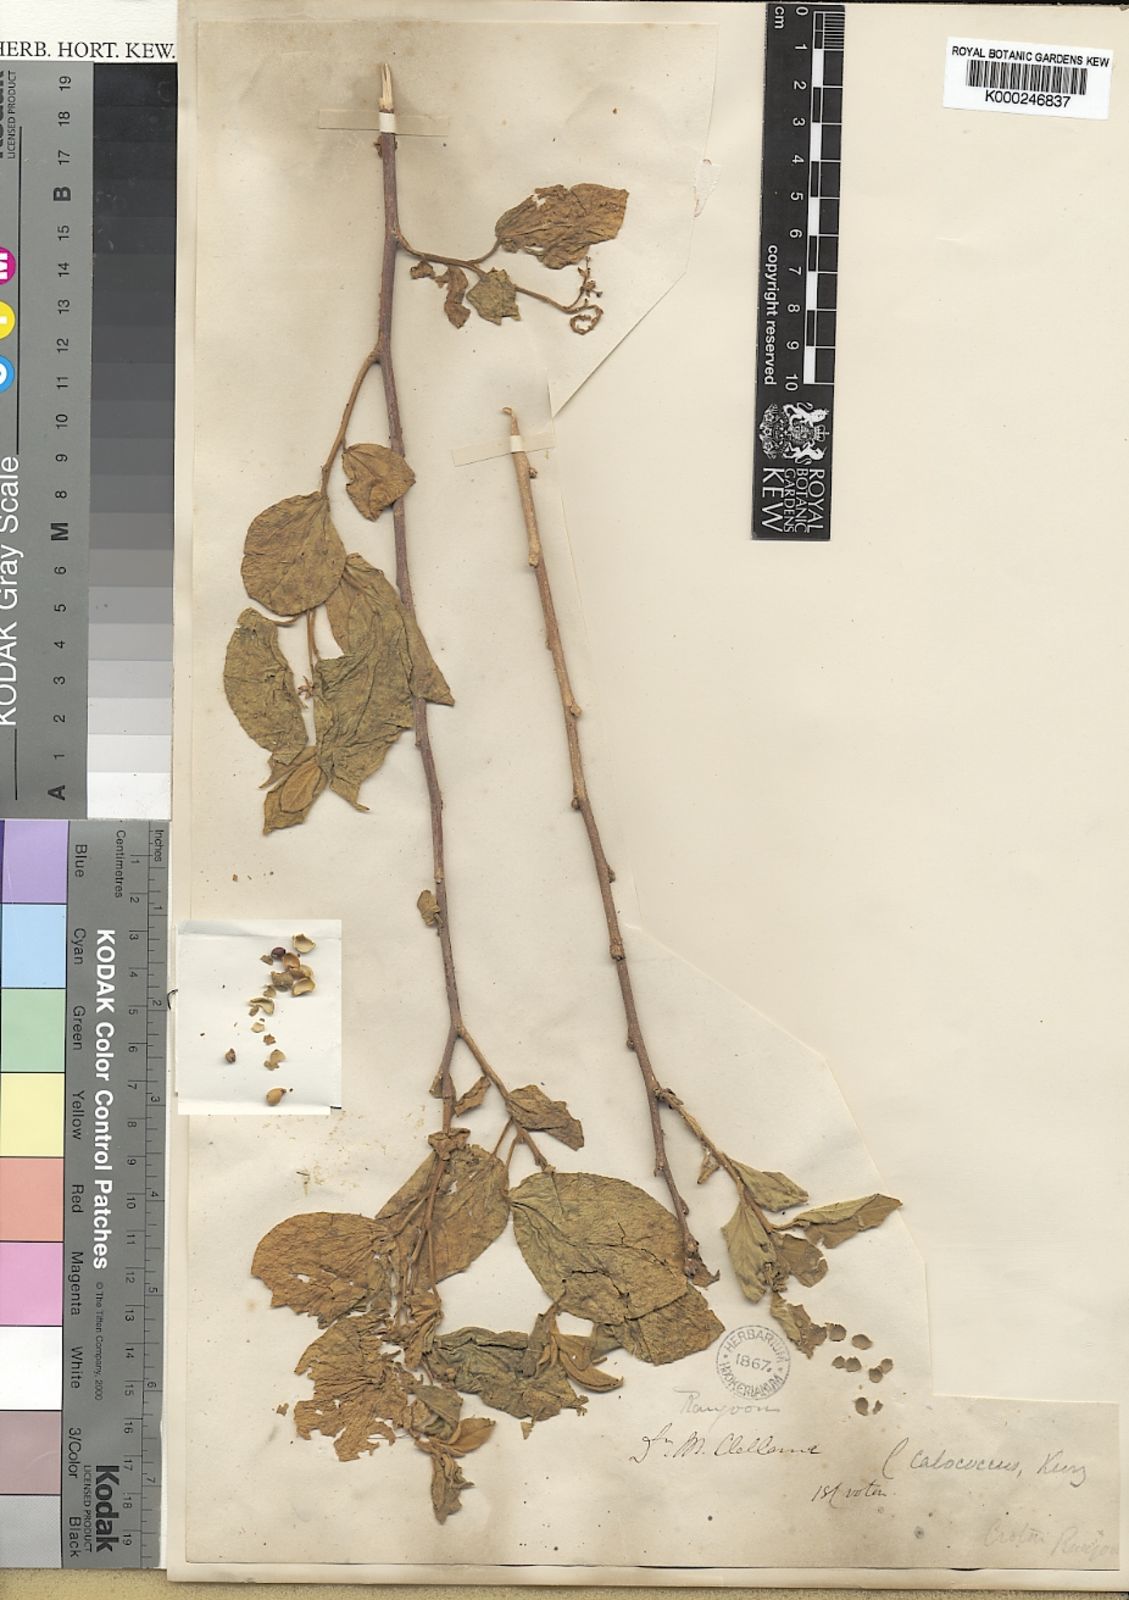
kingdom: Plantae
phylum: Tracheophyta
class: Magnoliopsida
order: Malpighiales
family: Euphorbiaceae
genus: Croton
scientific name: Croton lachnocarpus
